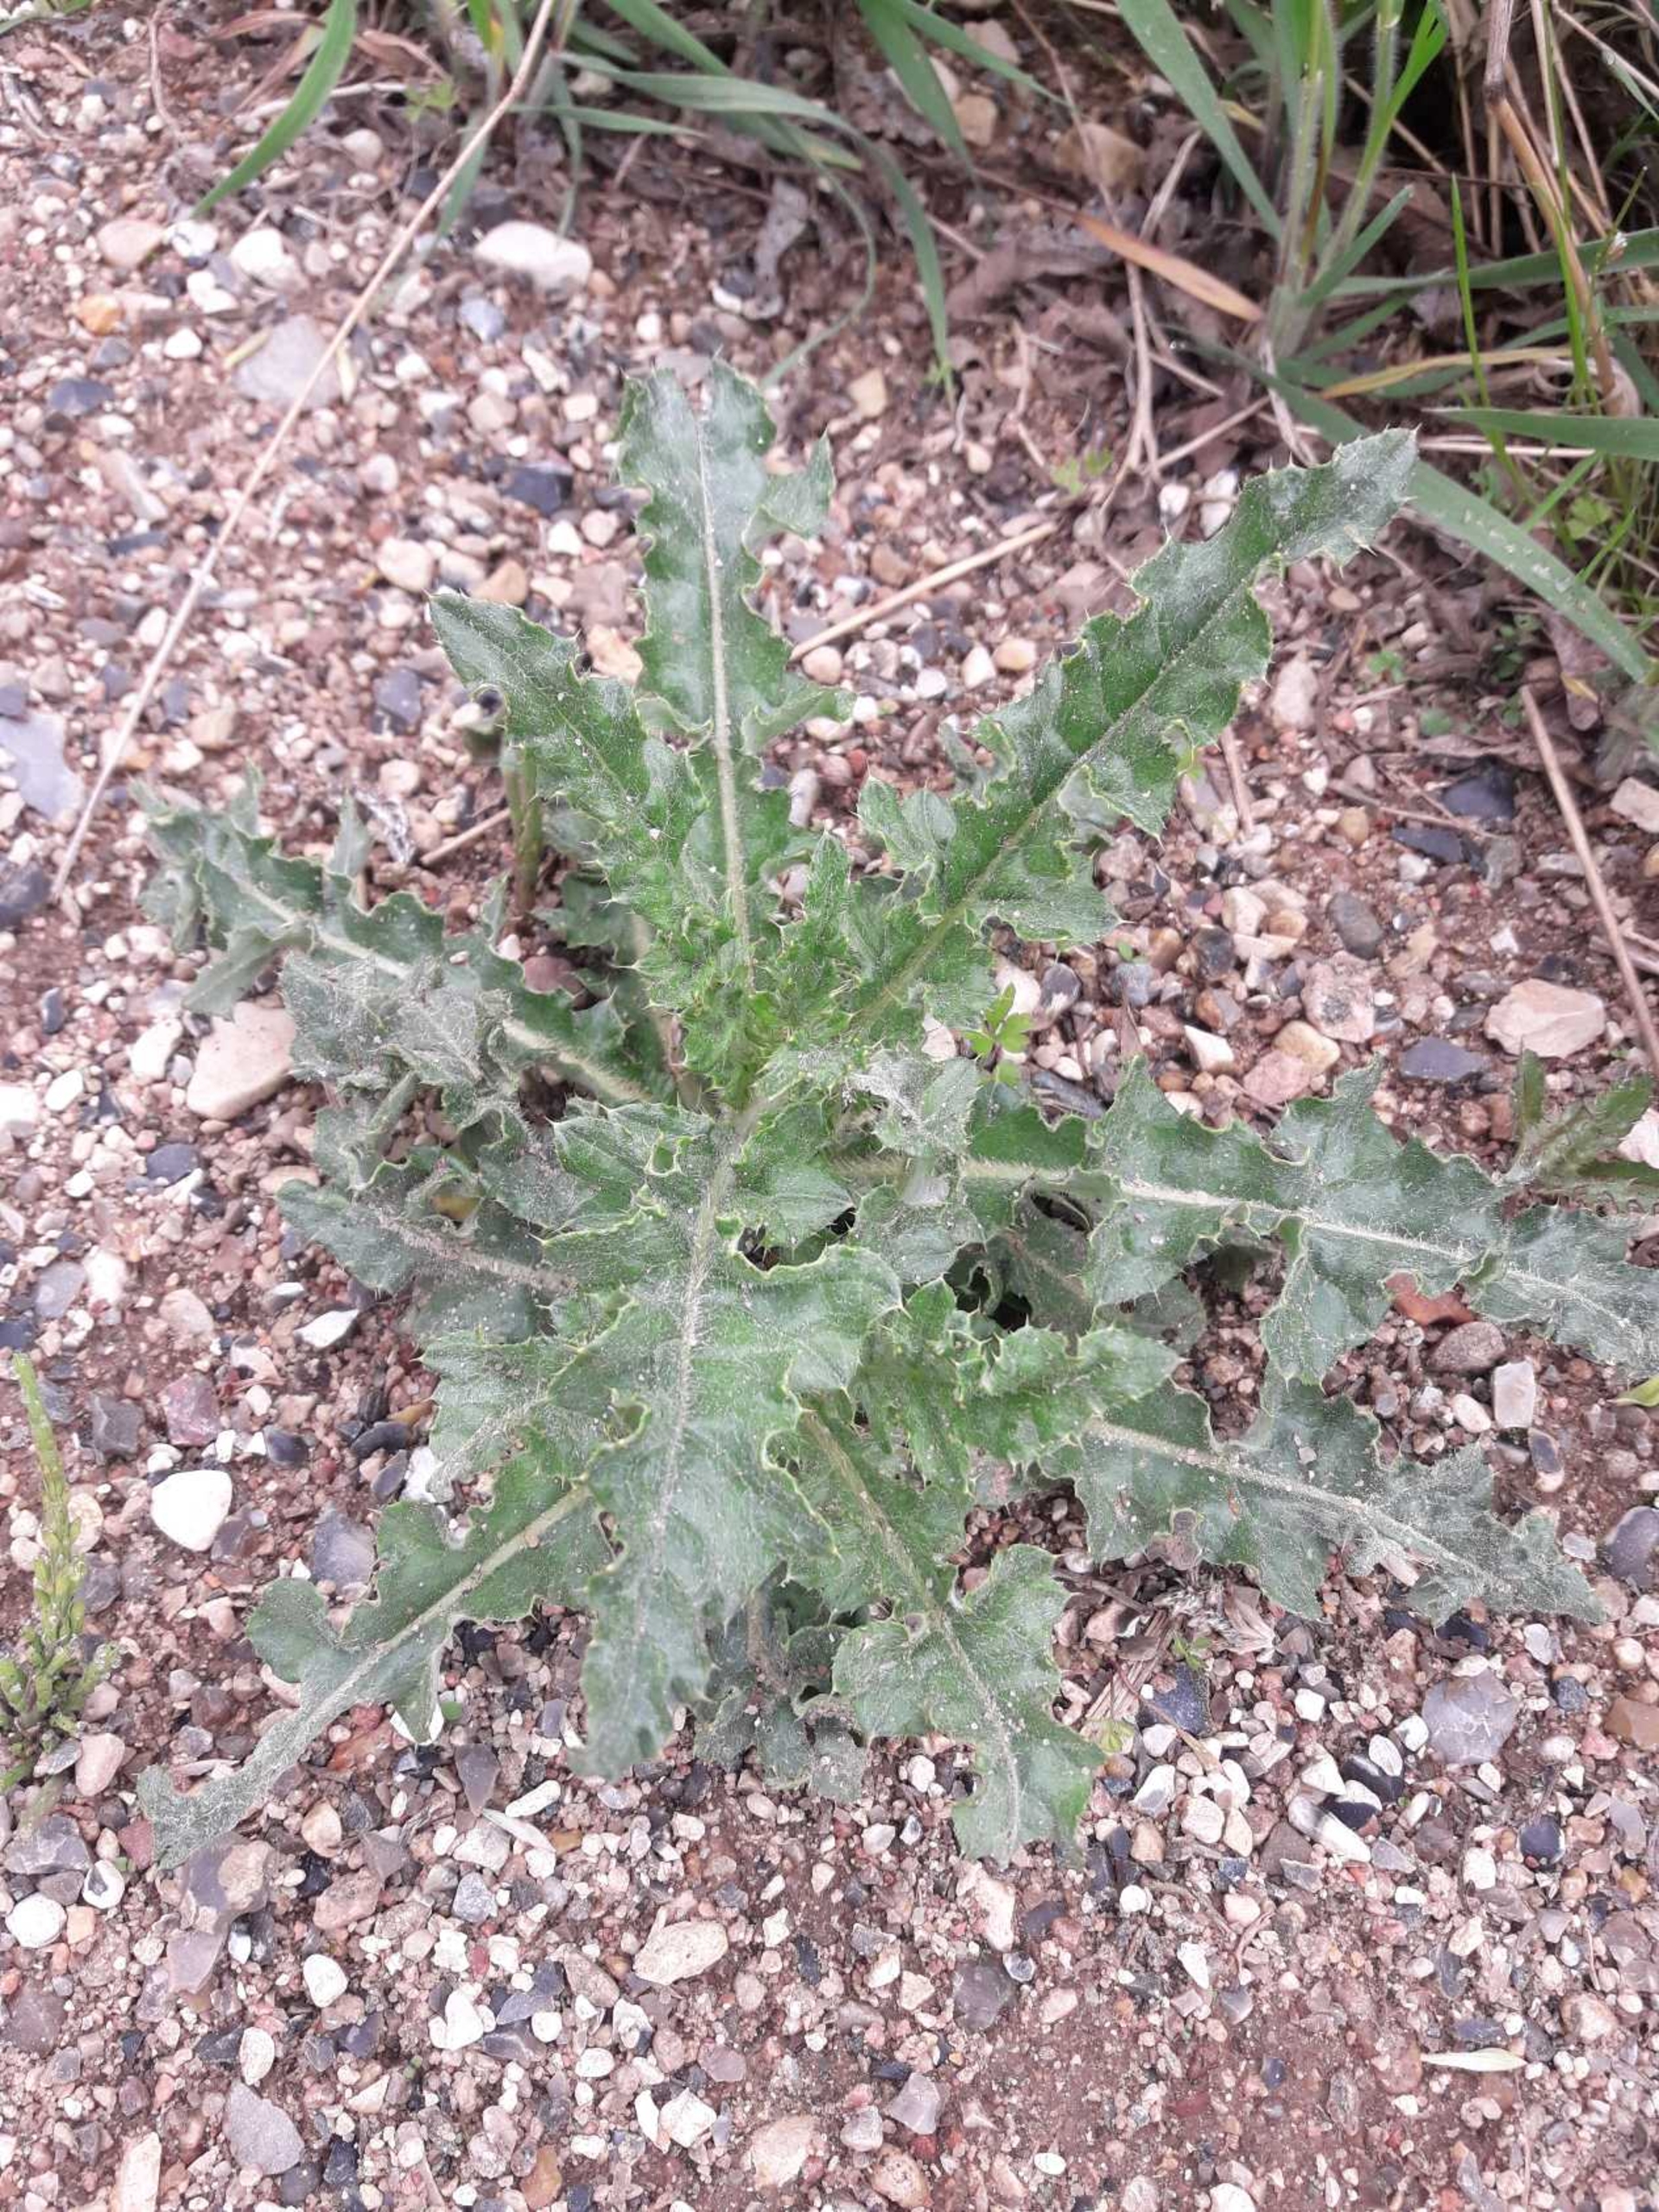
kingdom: Plantae
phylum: Tracheophyta
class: Magnoliopsida
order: Asterales
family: Asteraceae
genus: Cirsium
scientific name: Cirsium arvense
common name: Ager-tidsel
